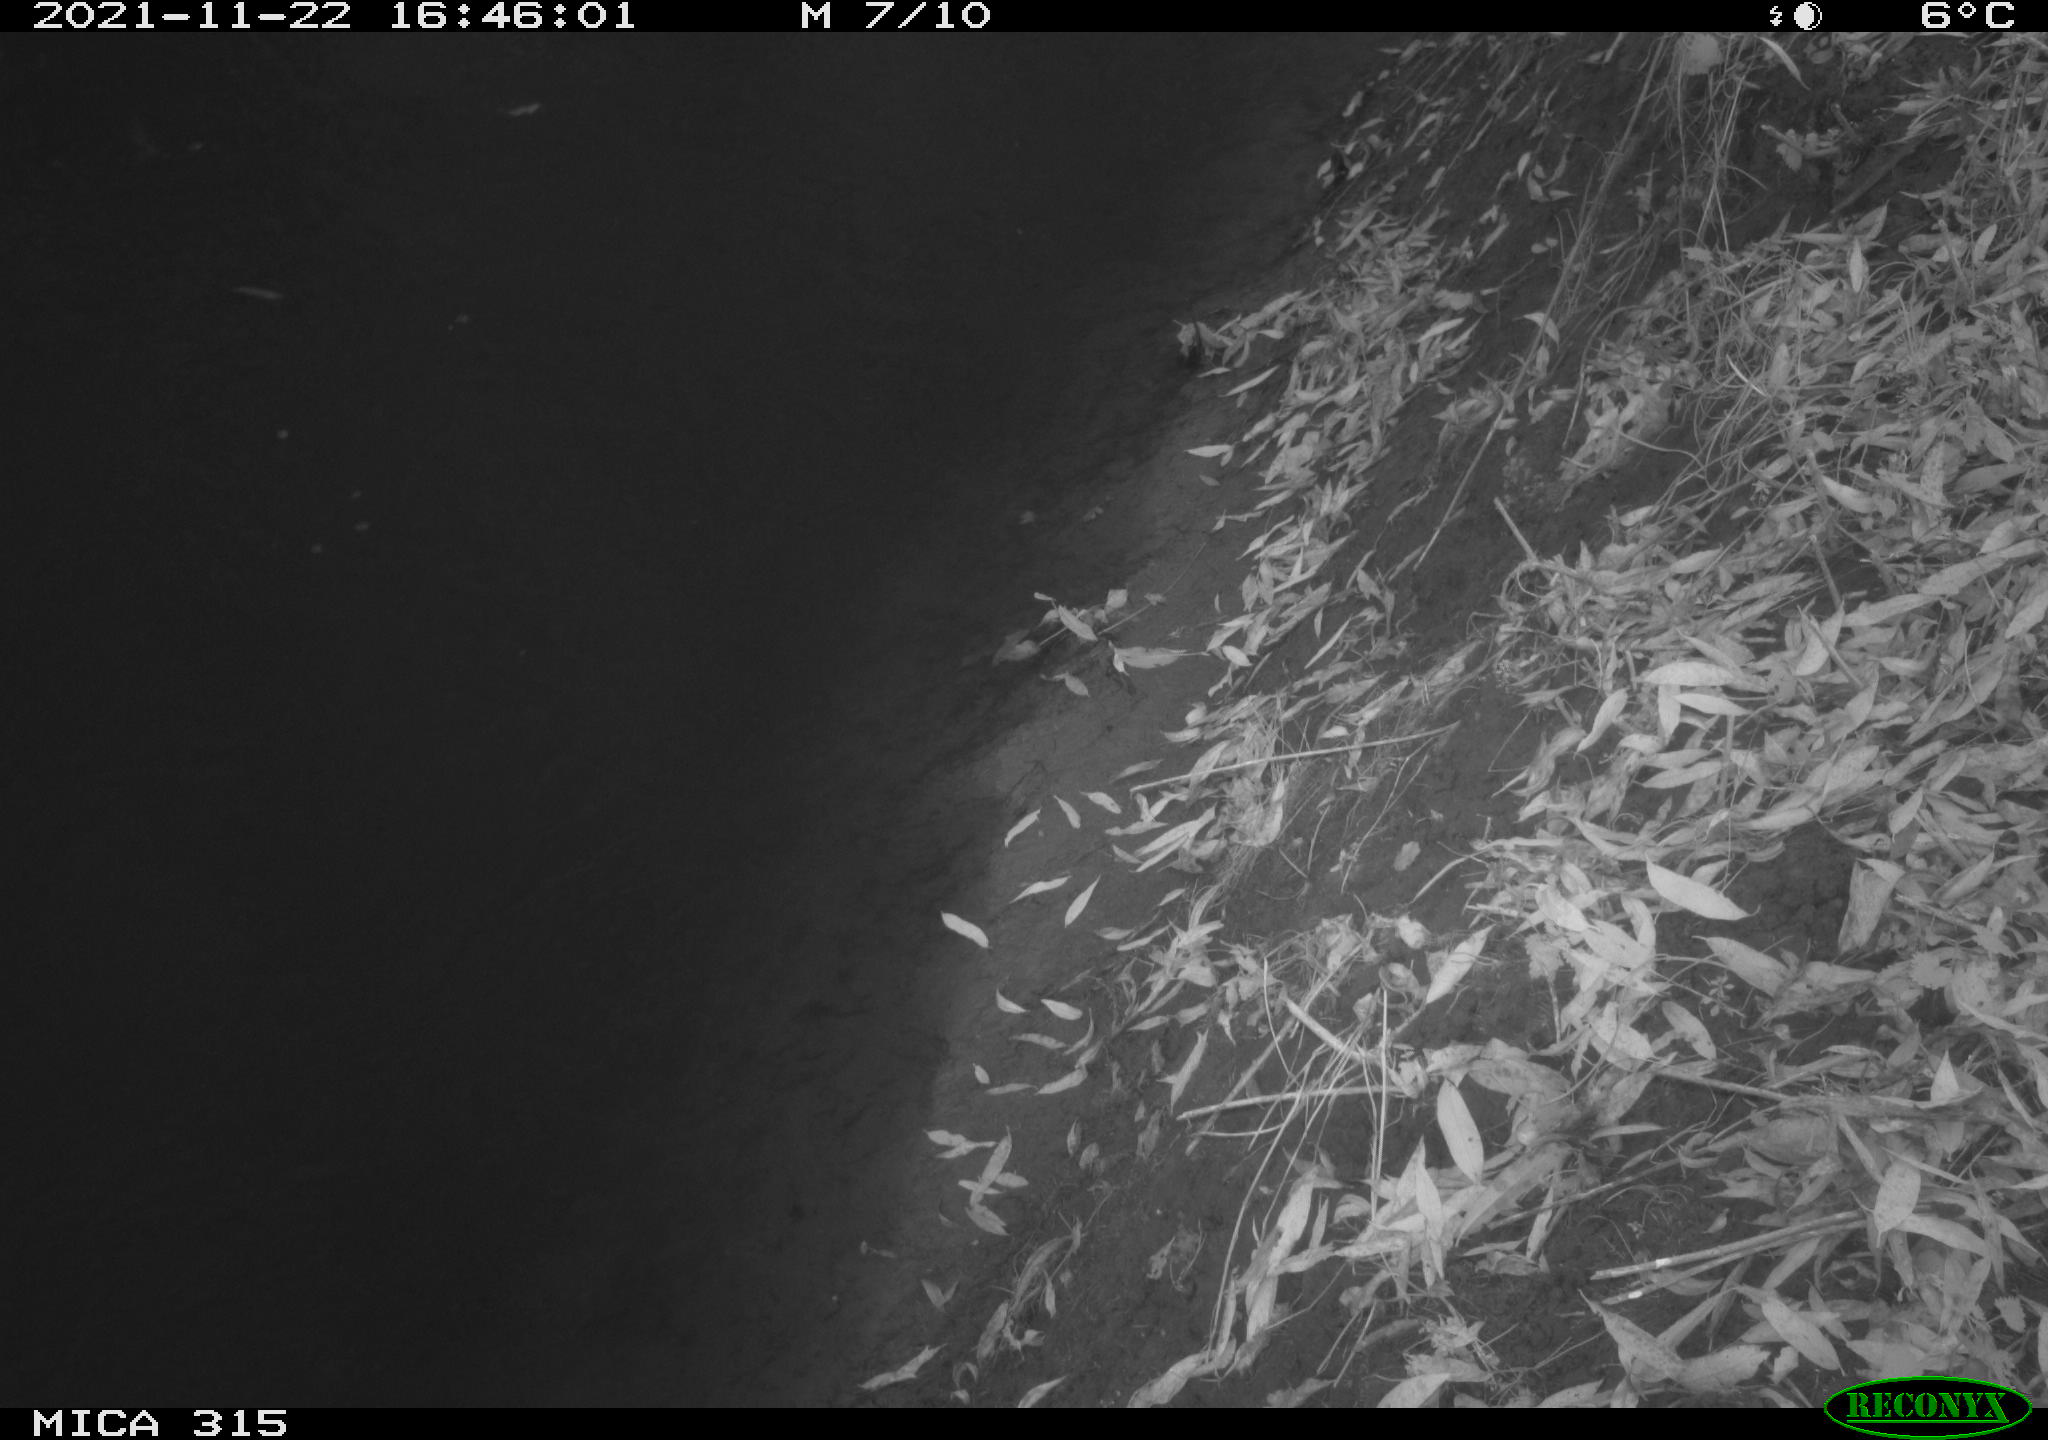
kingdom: Animalia
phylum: Chordata
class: Aves
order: Gruiformes
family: Rallidae
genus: Gallinula
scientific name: Gallinula chloropus
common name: Common moorhen
